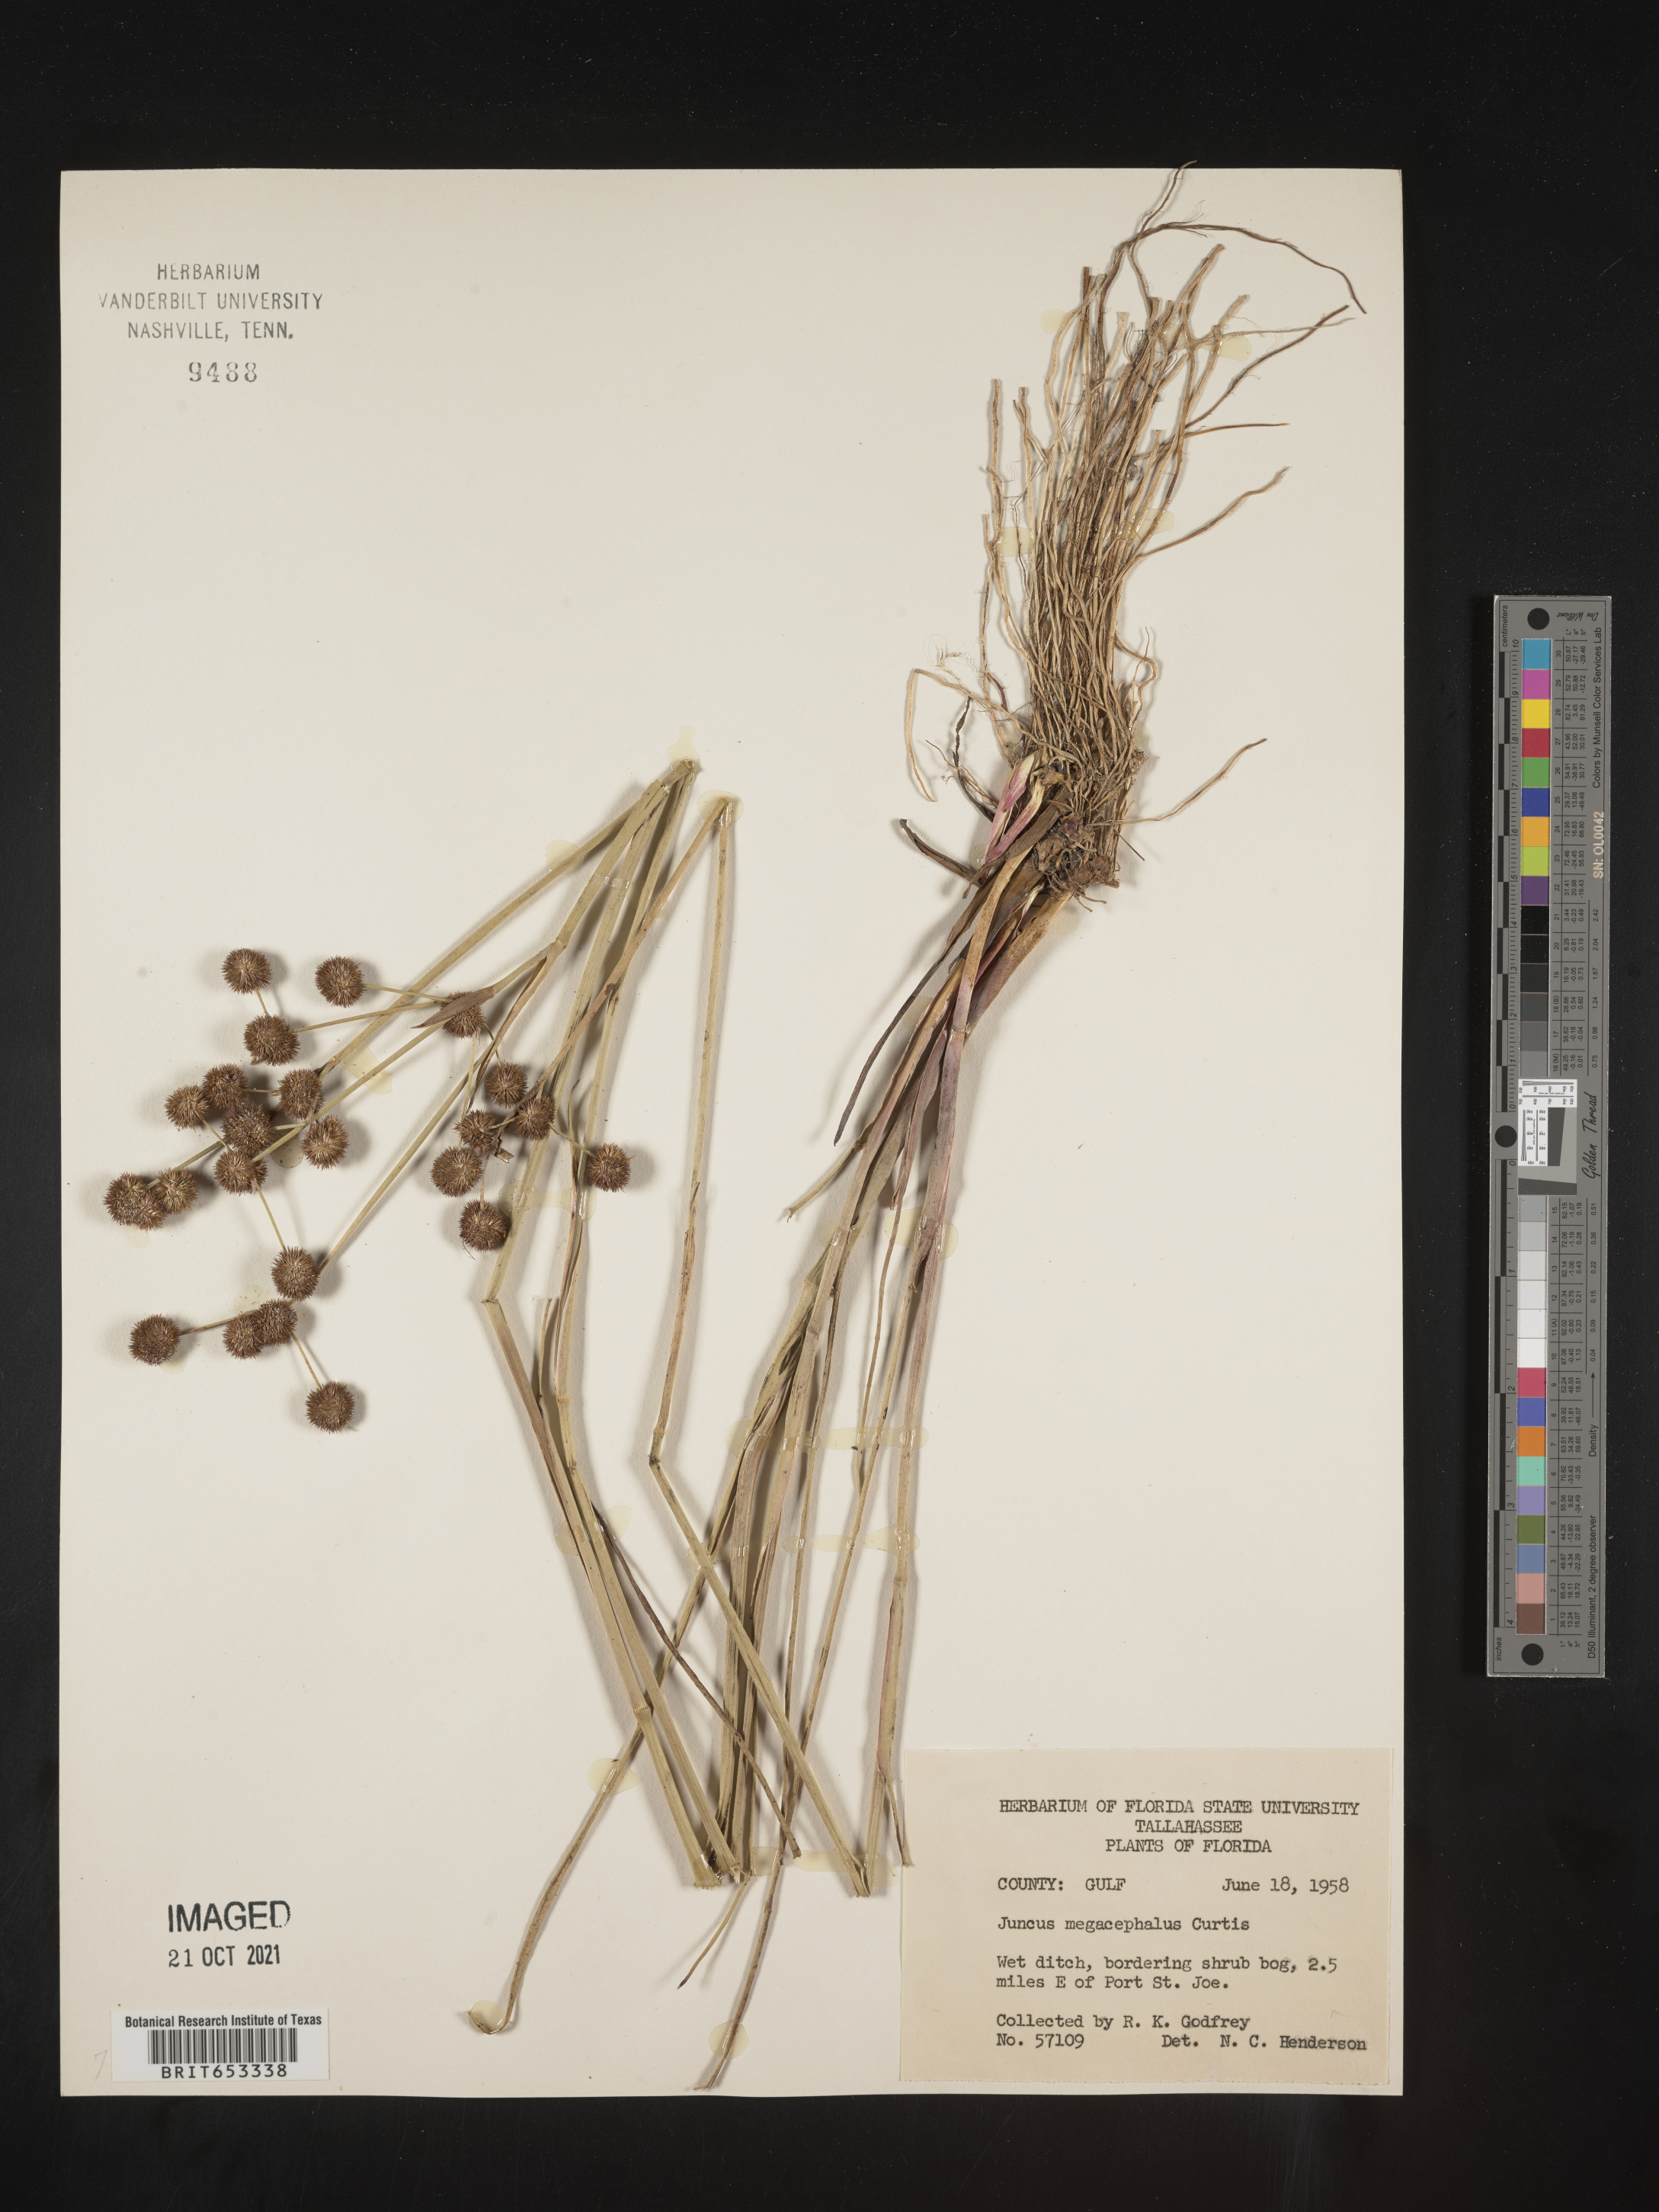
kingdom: Plantae
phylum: Tracheophyta
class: Liliopsida
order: Poales
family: Juncaceae
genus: Juncus
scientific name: Juncus megacephalus
